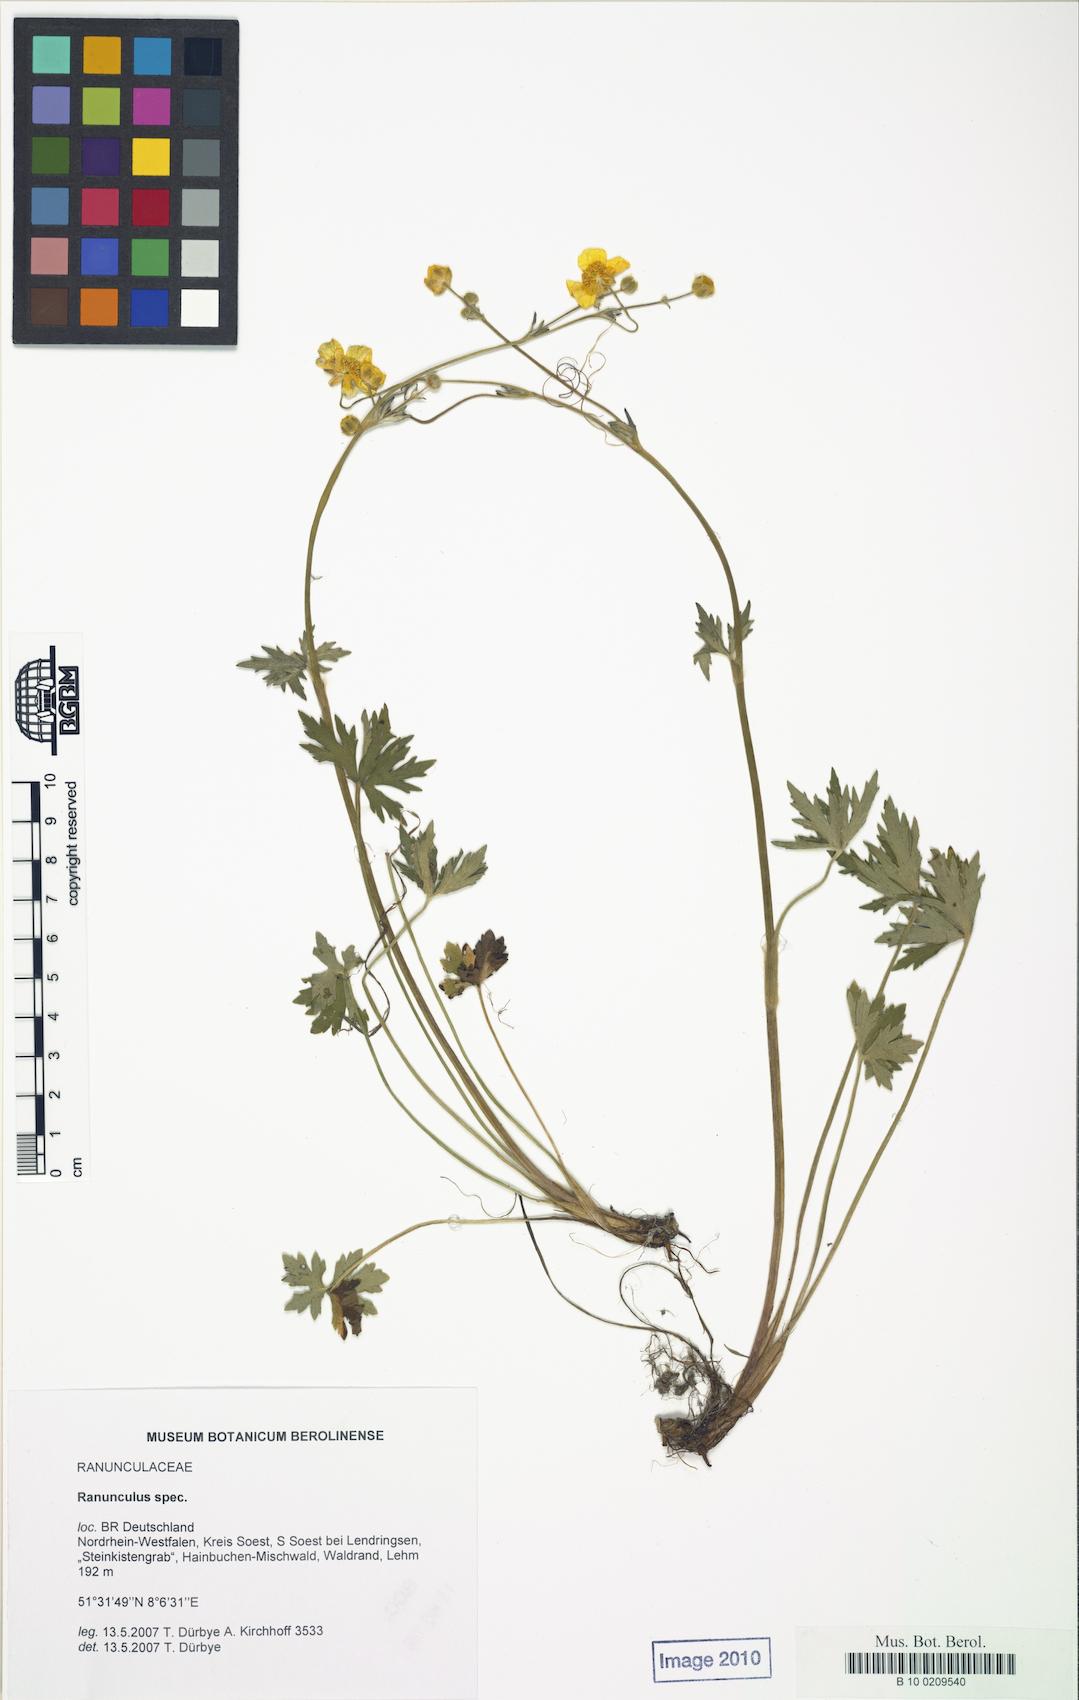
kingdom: Plantae
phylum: Tracheophyta
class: Magnoliopsida
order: Ranunculales
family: Ranunculaceae
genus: Ranunculus
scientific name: Ranunculus acris
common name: Meadow buttercup
